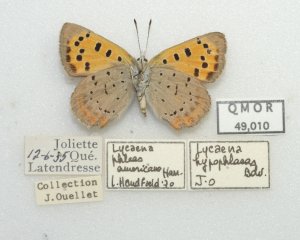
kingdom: Animalia
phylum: Arthropoda
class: Insecta
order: Lepidoptera
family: Lycaenidae
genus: Lycaena
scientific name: Lycaena phlaeas
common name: American Copper
